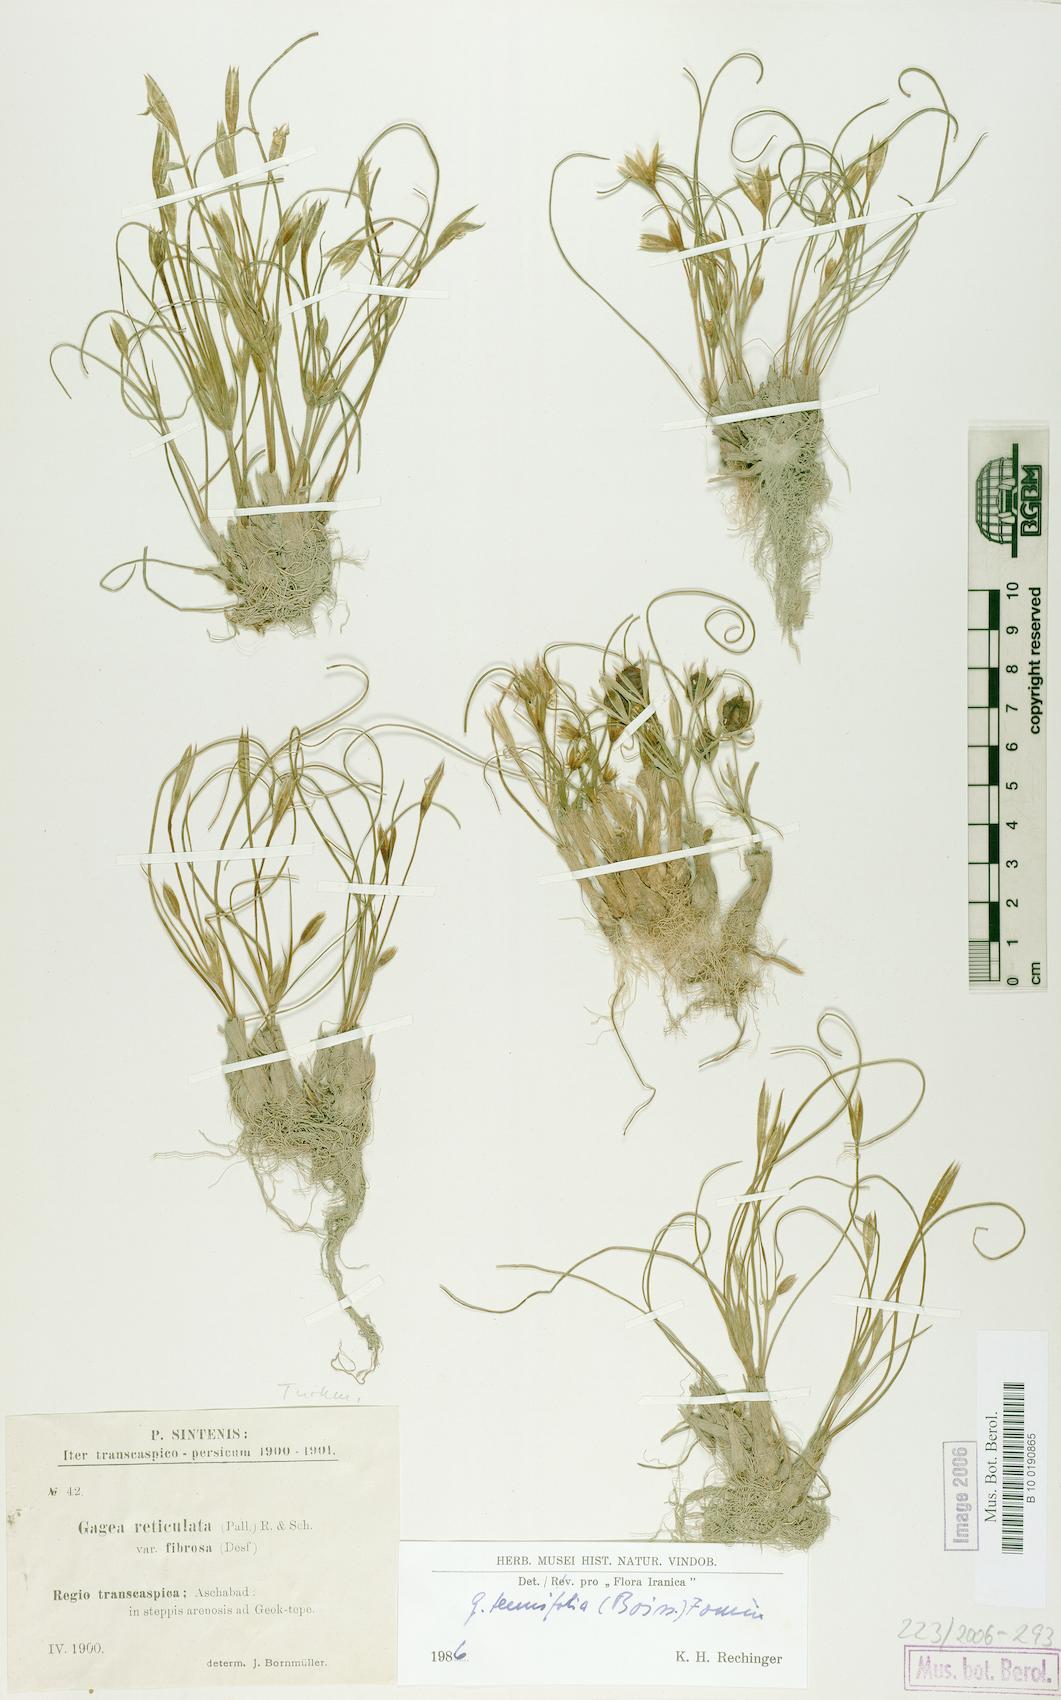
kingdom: Plantae
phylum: Tracheophyta
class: Liliopsida
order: Liliales
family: Liliaceae
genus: Gagea
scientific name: Gagea reticulata
